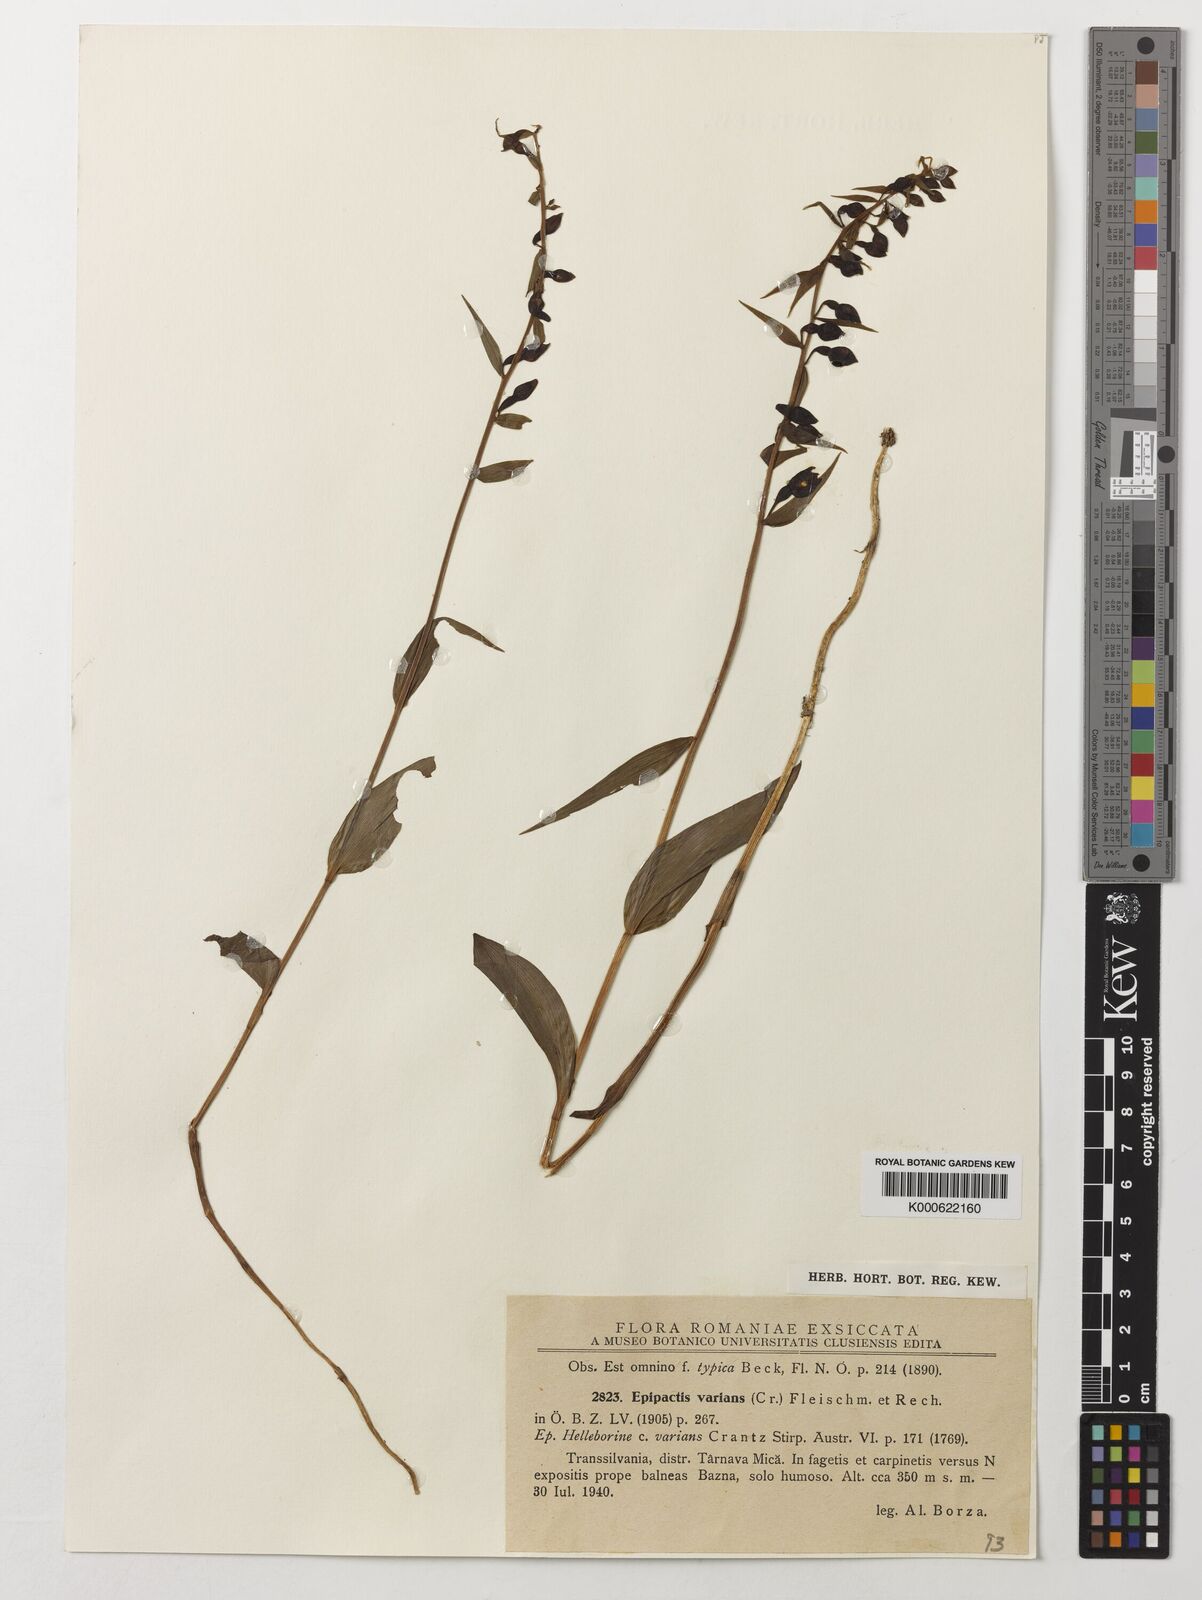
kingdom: Plantae
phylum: Tracheophyta
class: Liliopsida
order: Asparagales
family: Orchidaceae
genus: Epipactis
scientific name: Epipactis purpurata
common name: Violet helleborine
